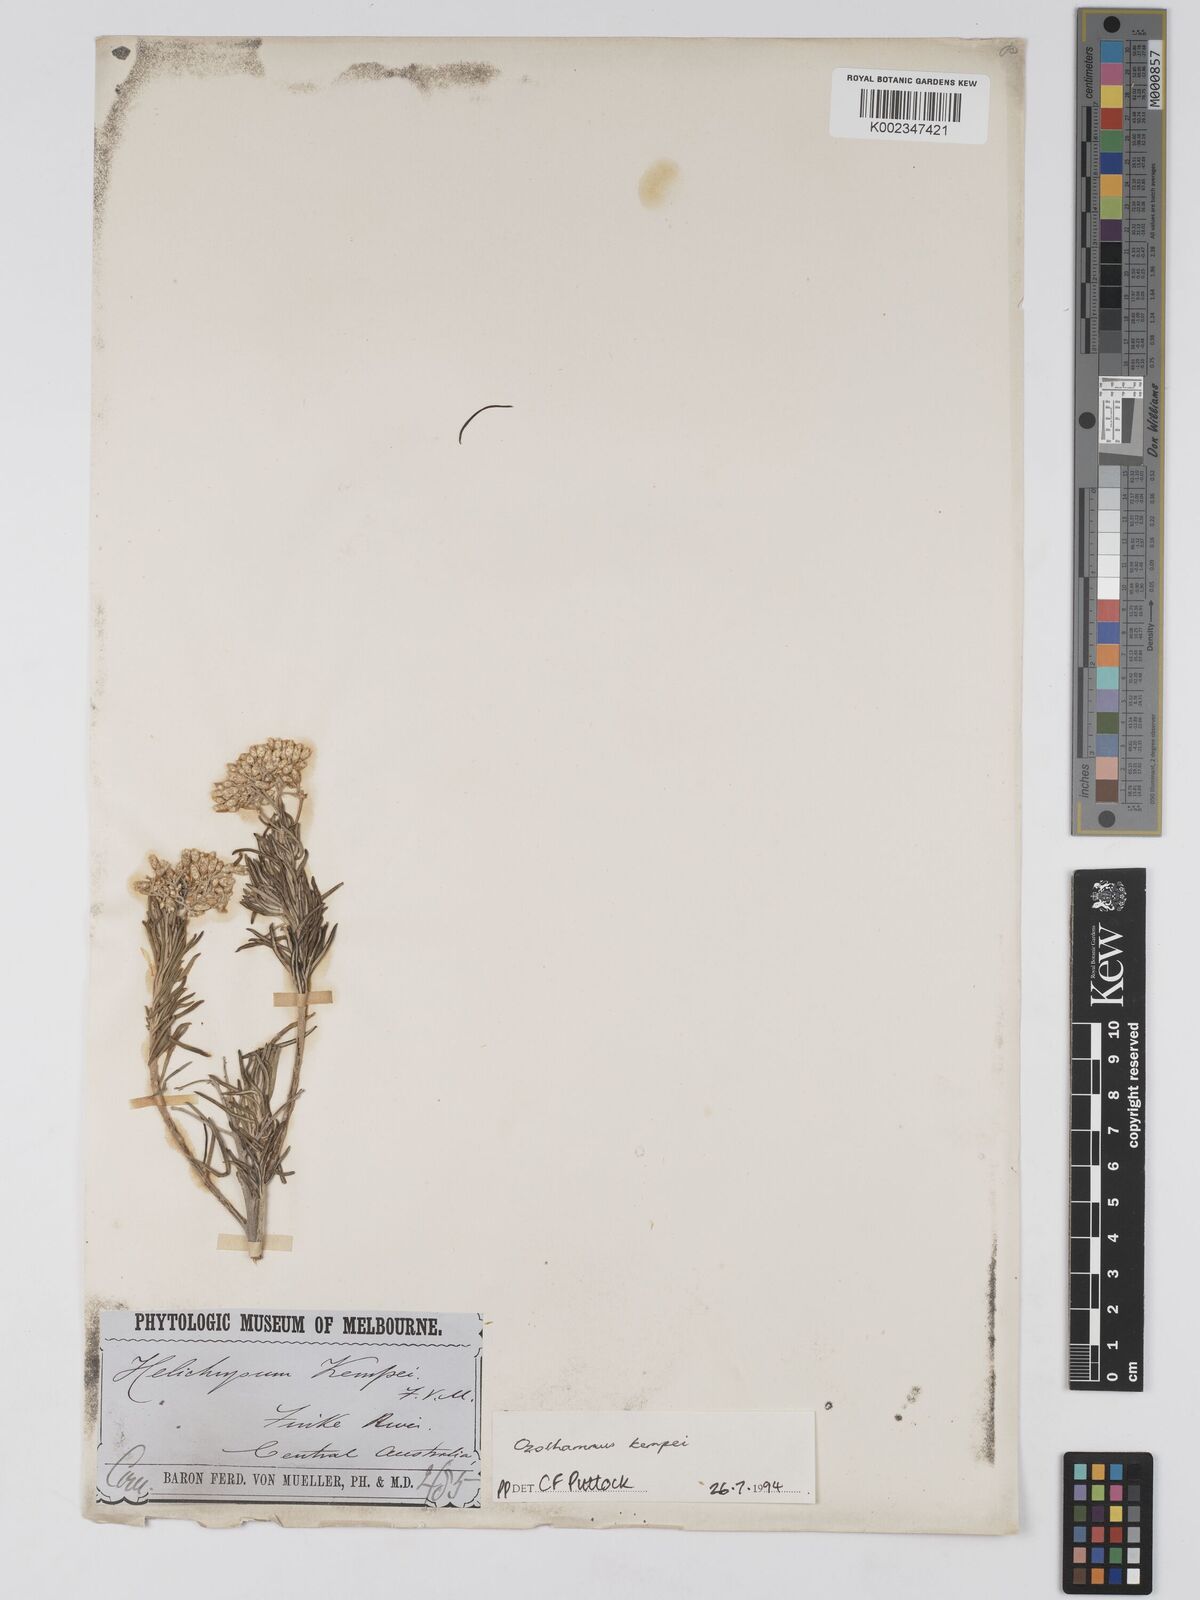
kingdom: Plantae
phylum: Tracheophyta
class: Magnoliopsida
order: Asterales
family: Asteraceae
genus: Ozothamnus
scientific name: Ozothamnus kempei
